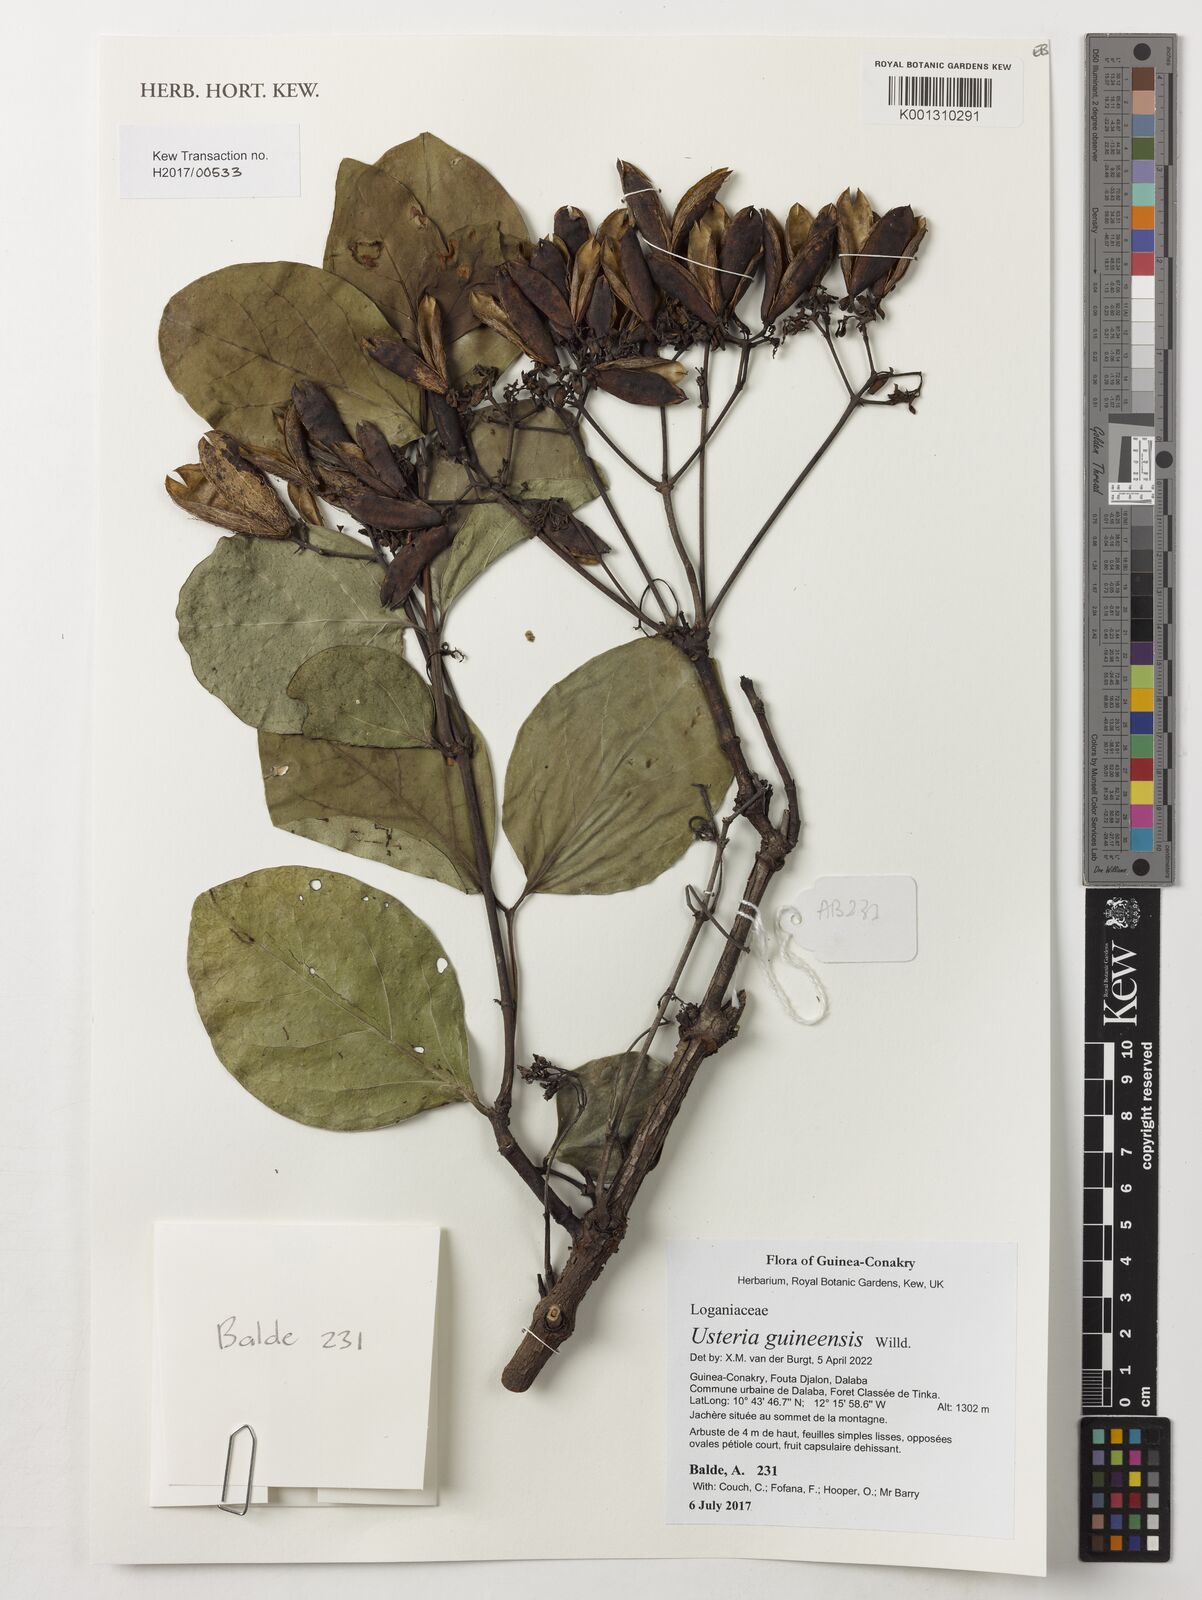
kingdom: Plantae
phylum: Tracheophyta
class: Magnoliopsida
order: Gentianales
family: Loganiaceae
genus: Usteria
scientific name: Usteria guineensis
